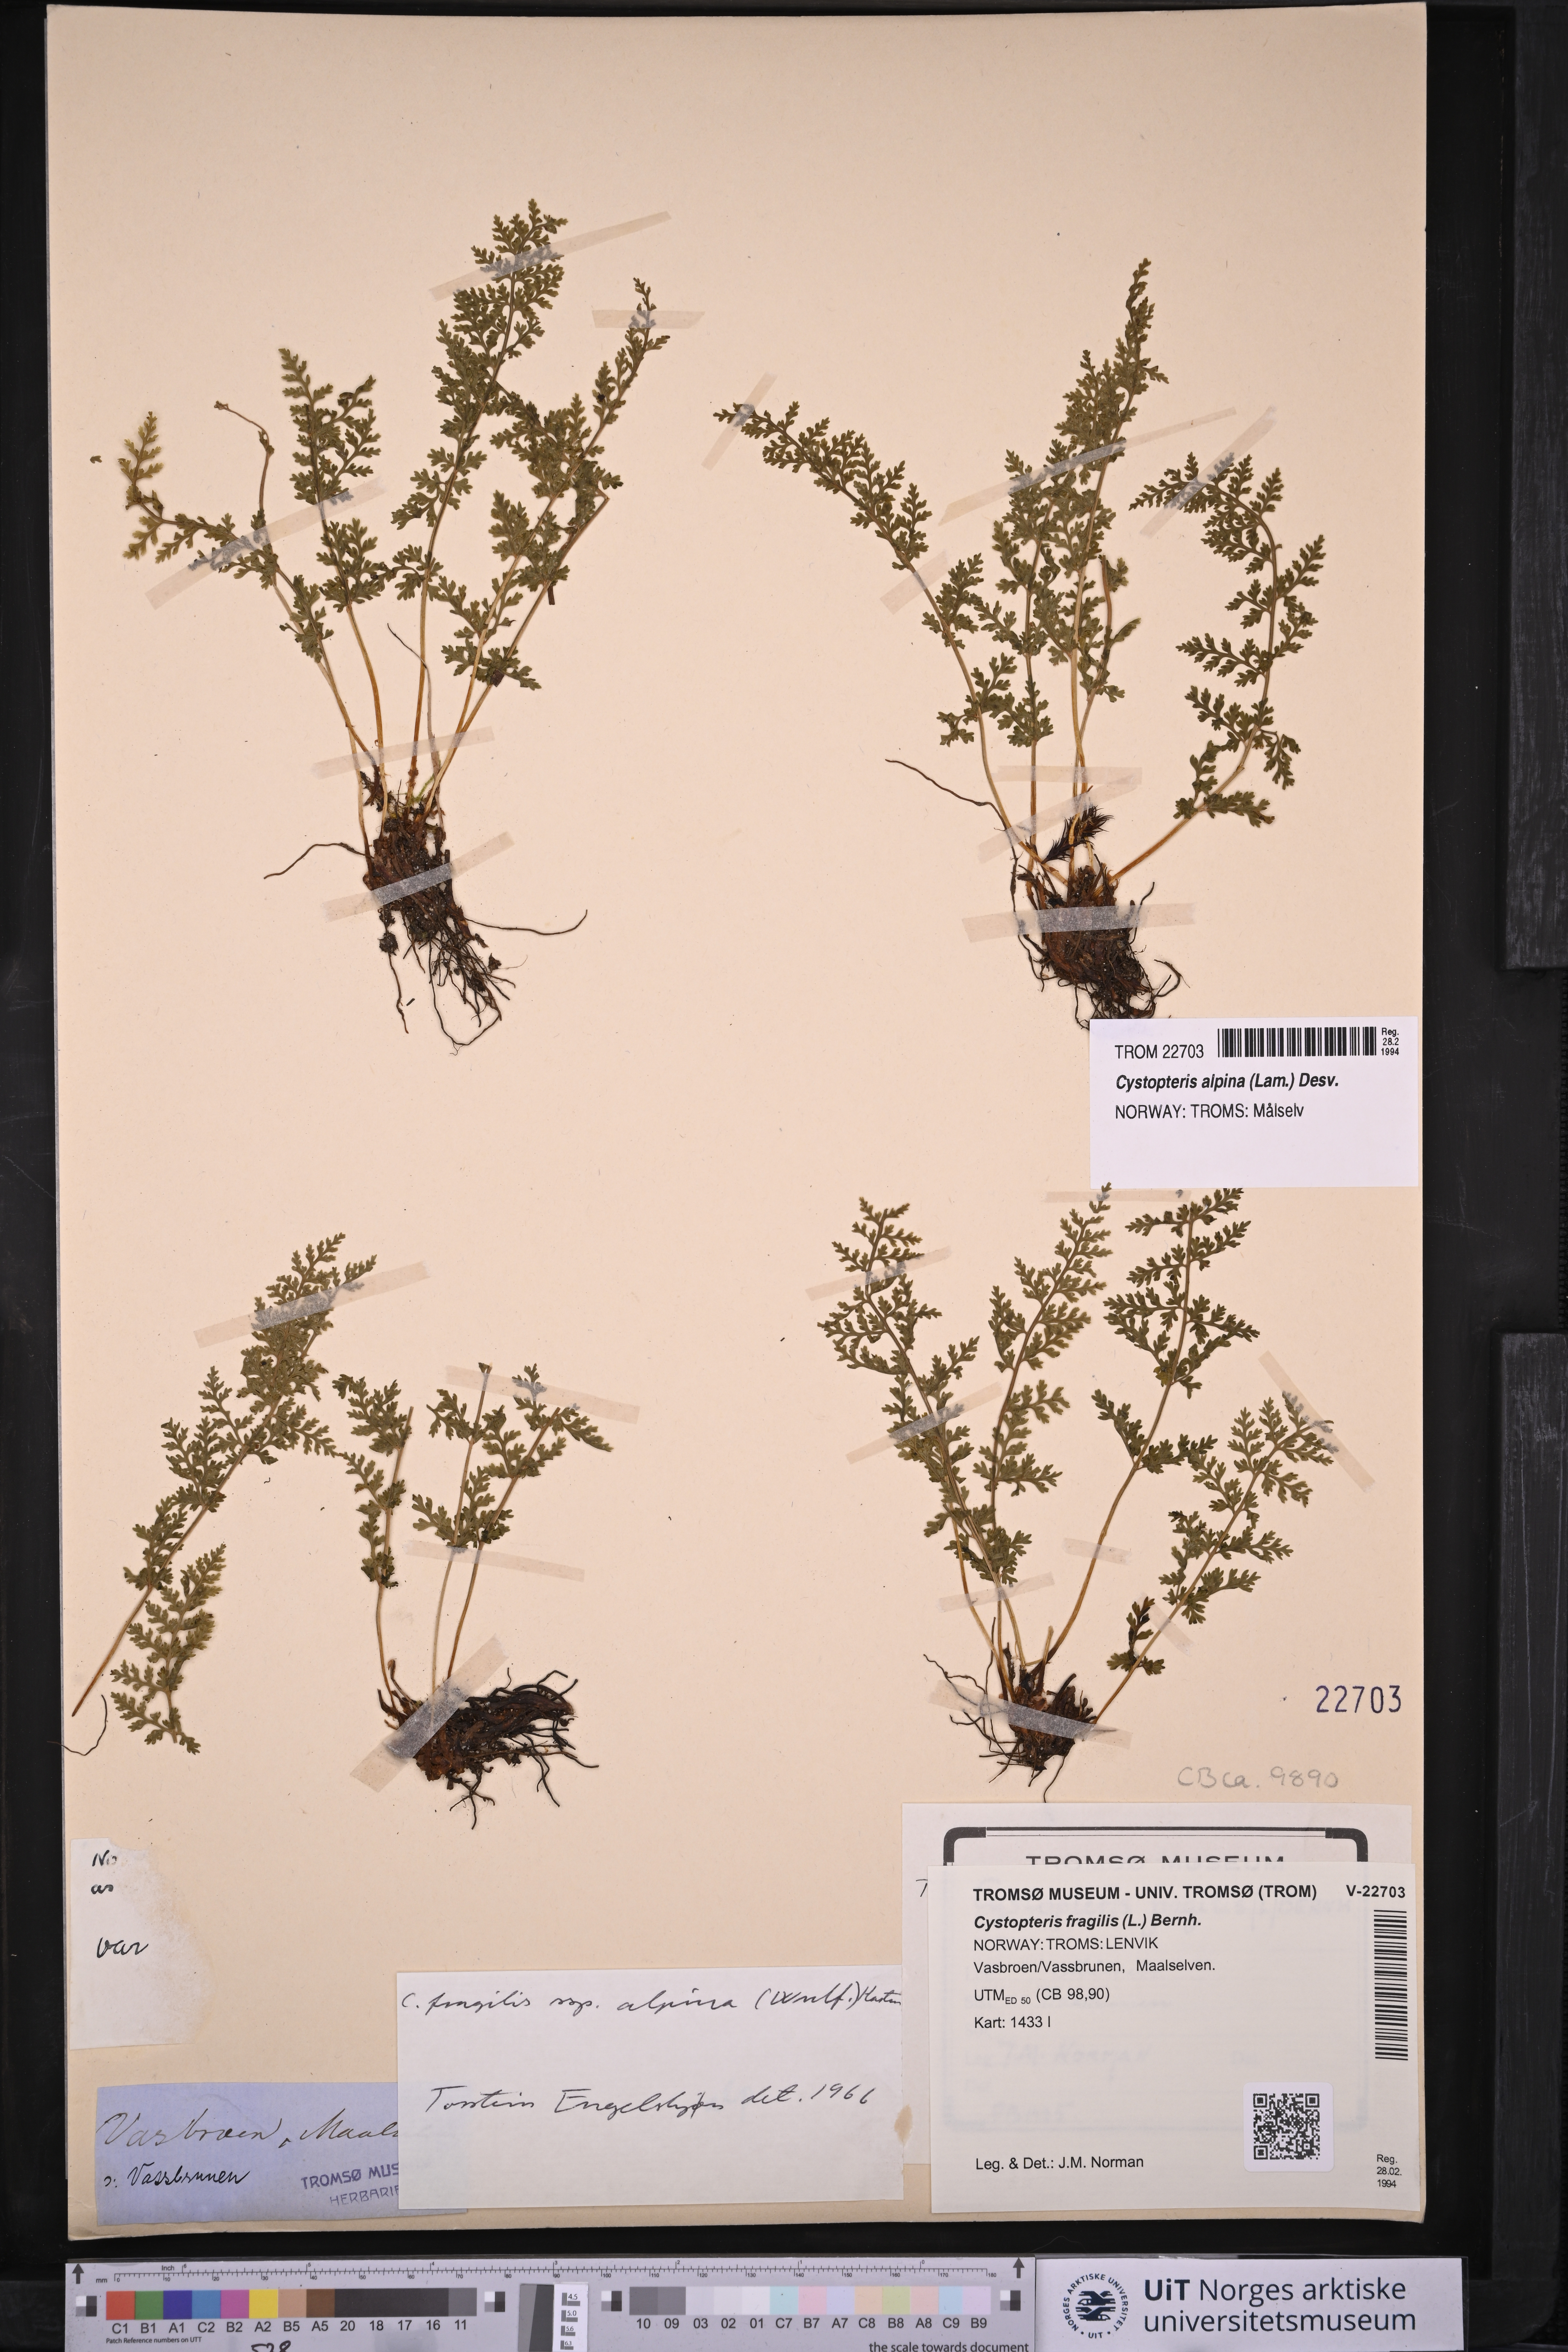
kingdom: Plantae
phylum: Tracheophyta
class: Polypodiopsida
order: Polypodiales
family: Cystopteridaceae
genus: Cystopteris
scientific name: Cystopteris alpina
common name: Alpine bladder-fern
